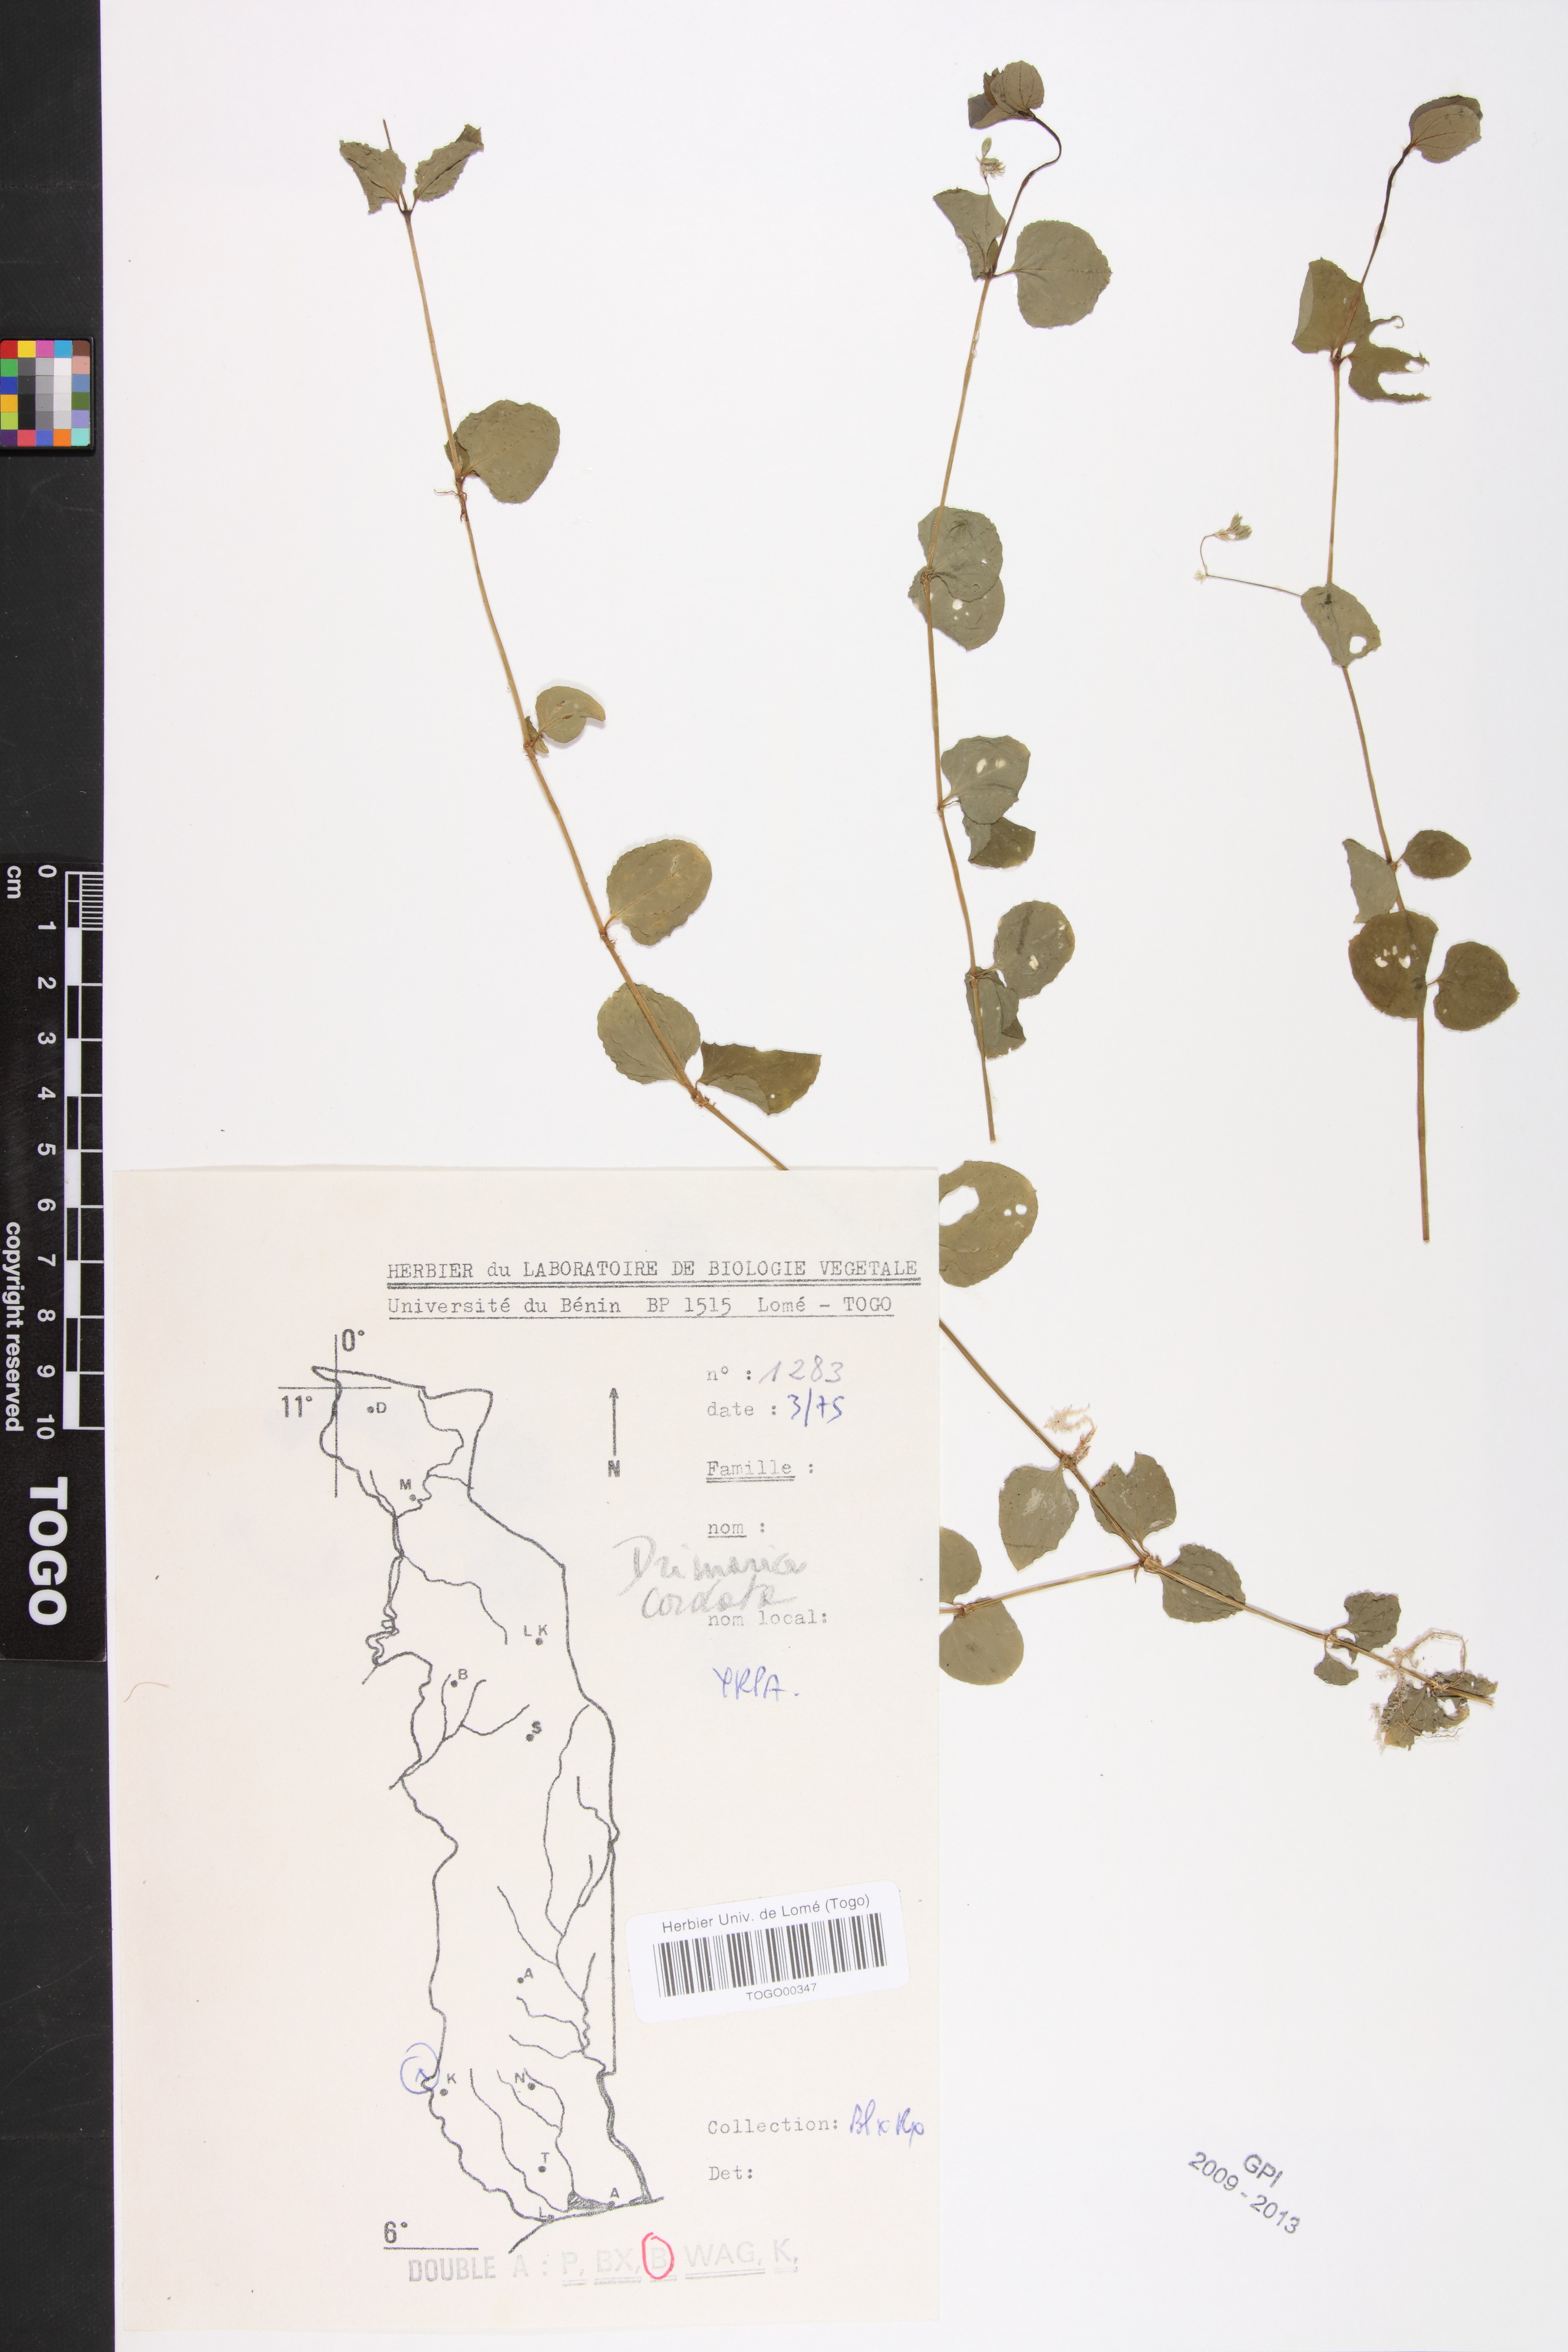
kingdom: Plantae
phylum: Tracheophyta
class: Magnoliopsida
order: Caryophyllales
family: Caryophyllaceae
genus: Drymaria
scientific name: Drymaria cordata
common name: Whitesnow
